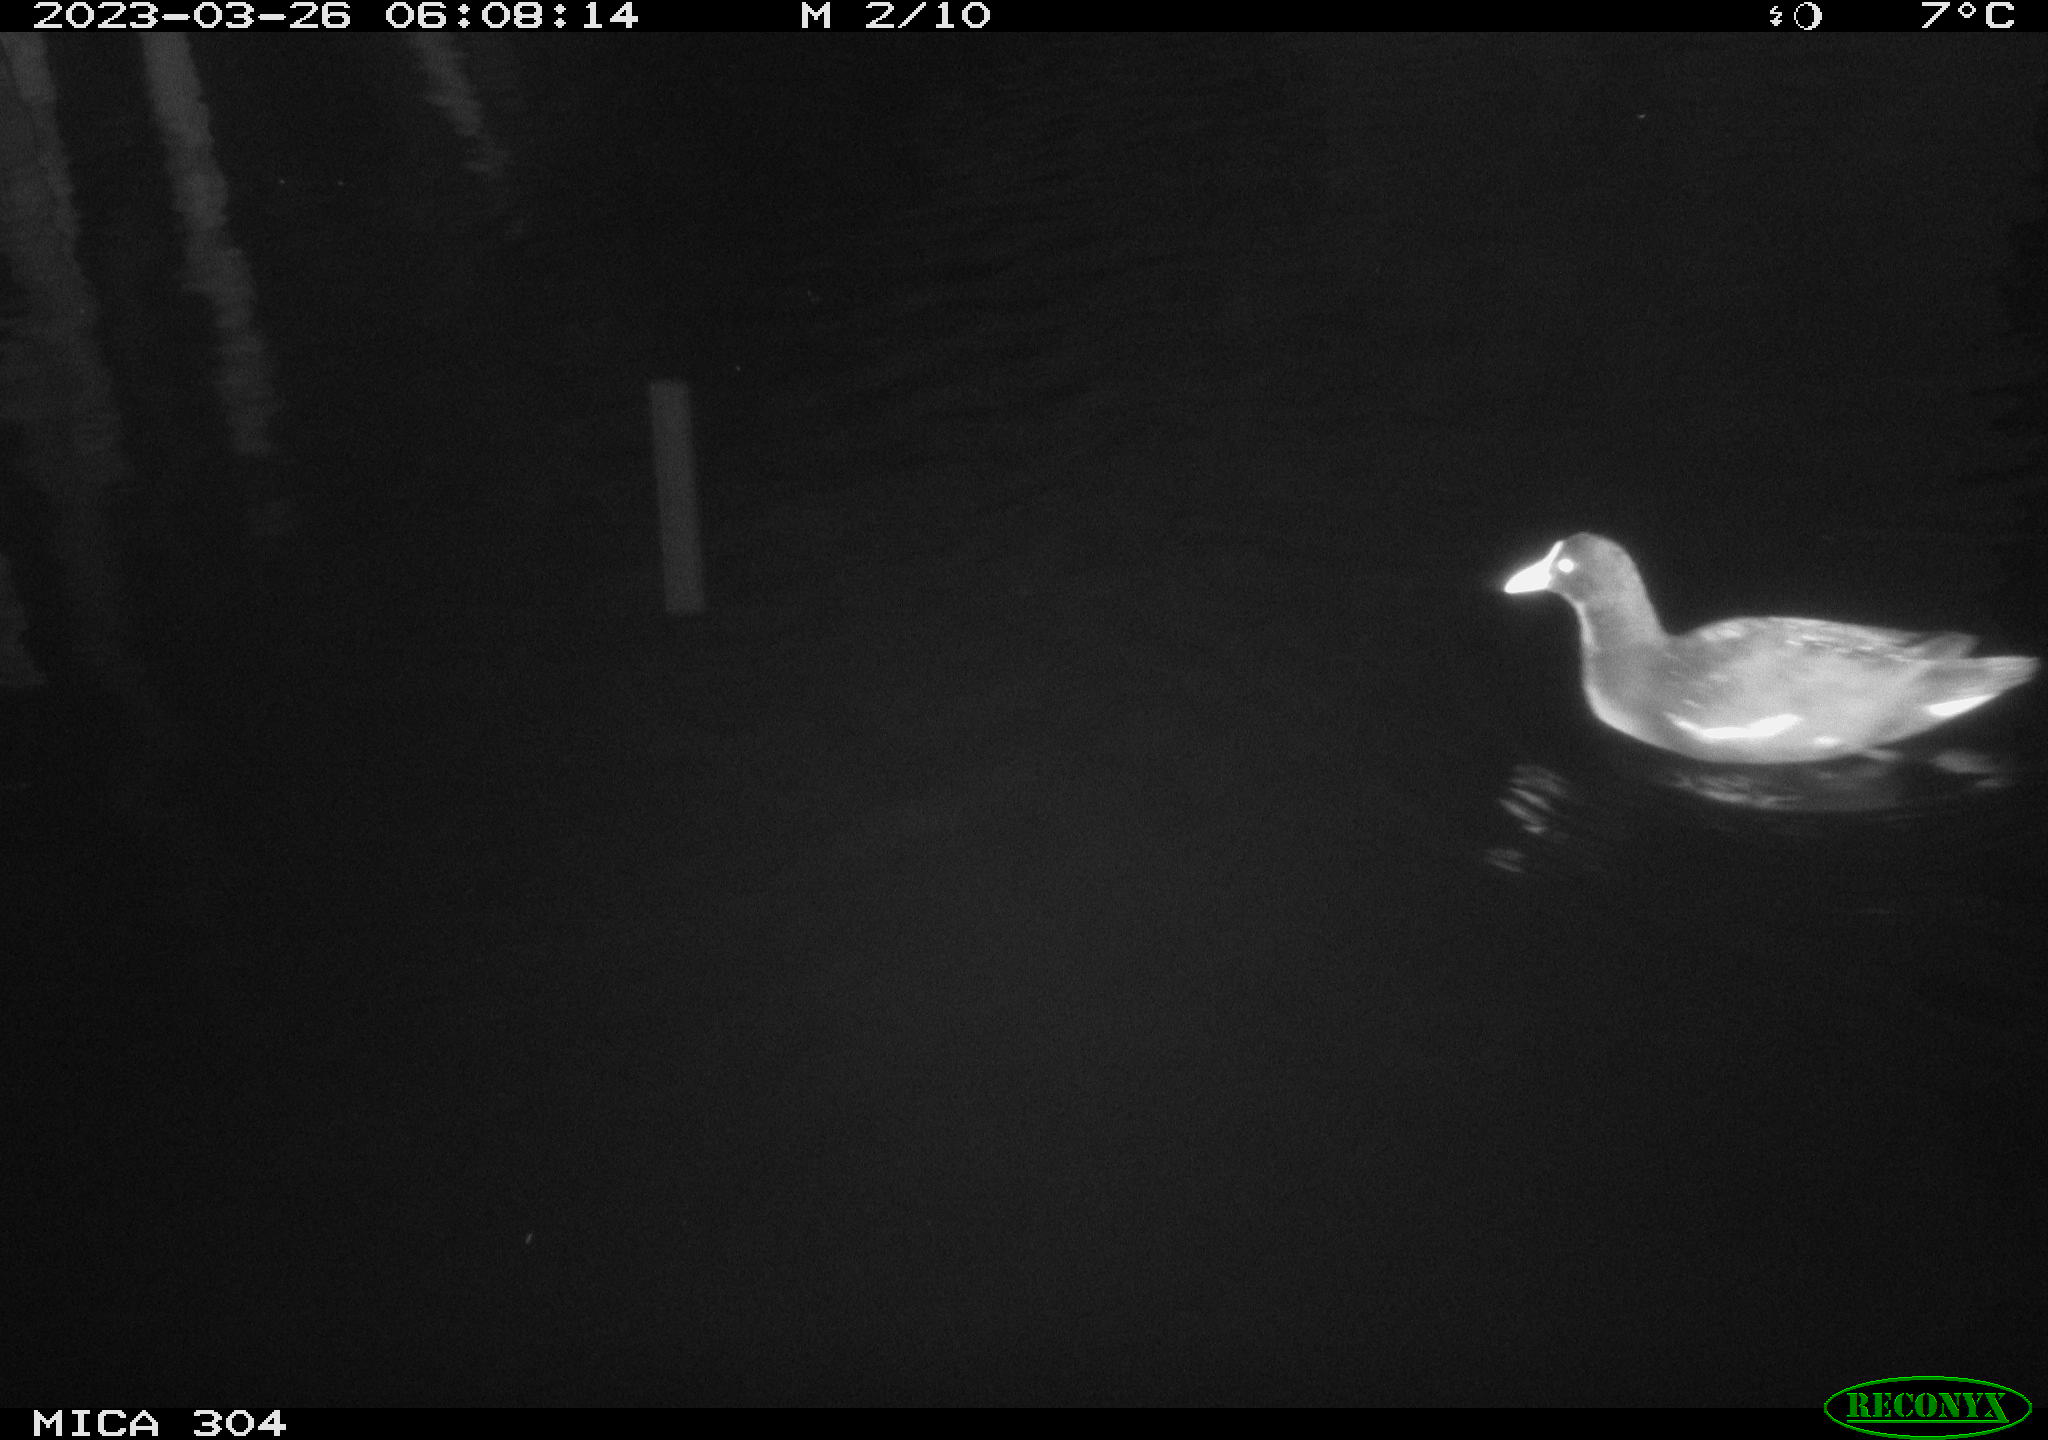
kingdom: Animalia
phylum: Chordata
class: Aves
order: Gruiformes
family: Rallidae
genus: Gallinula
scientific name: Gallinula chloropus
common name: Common moorhen
